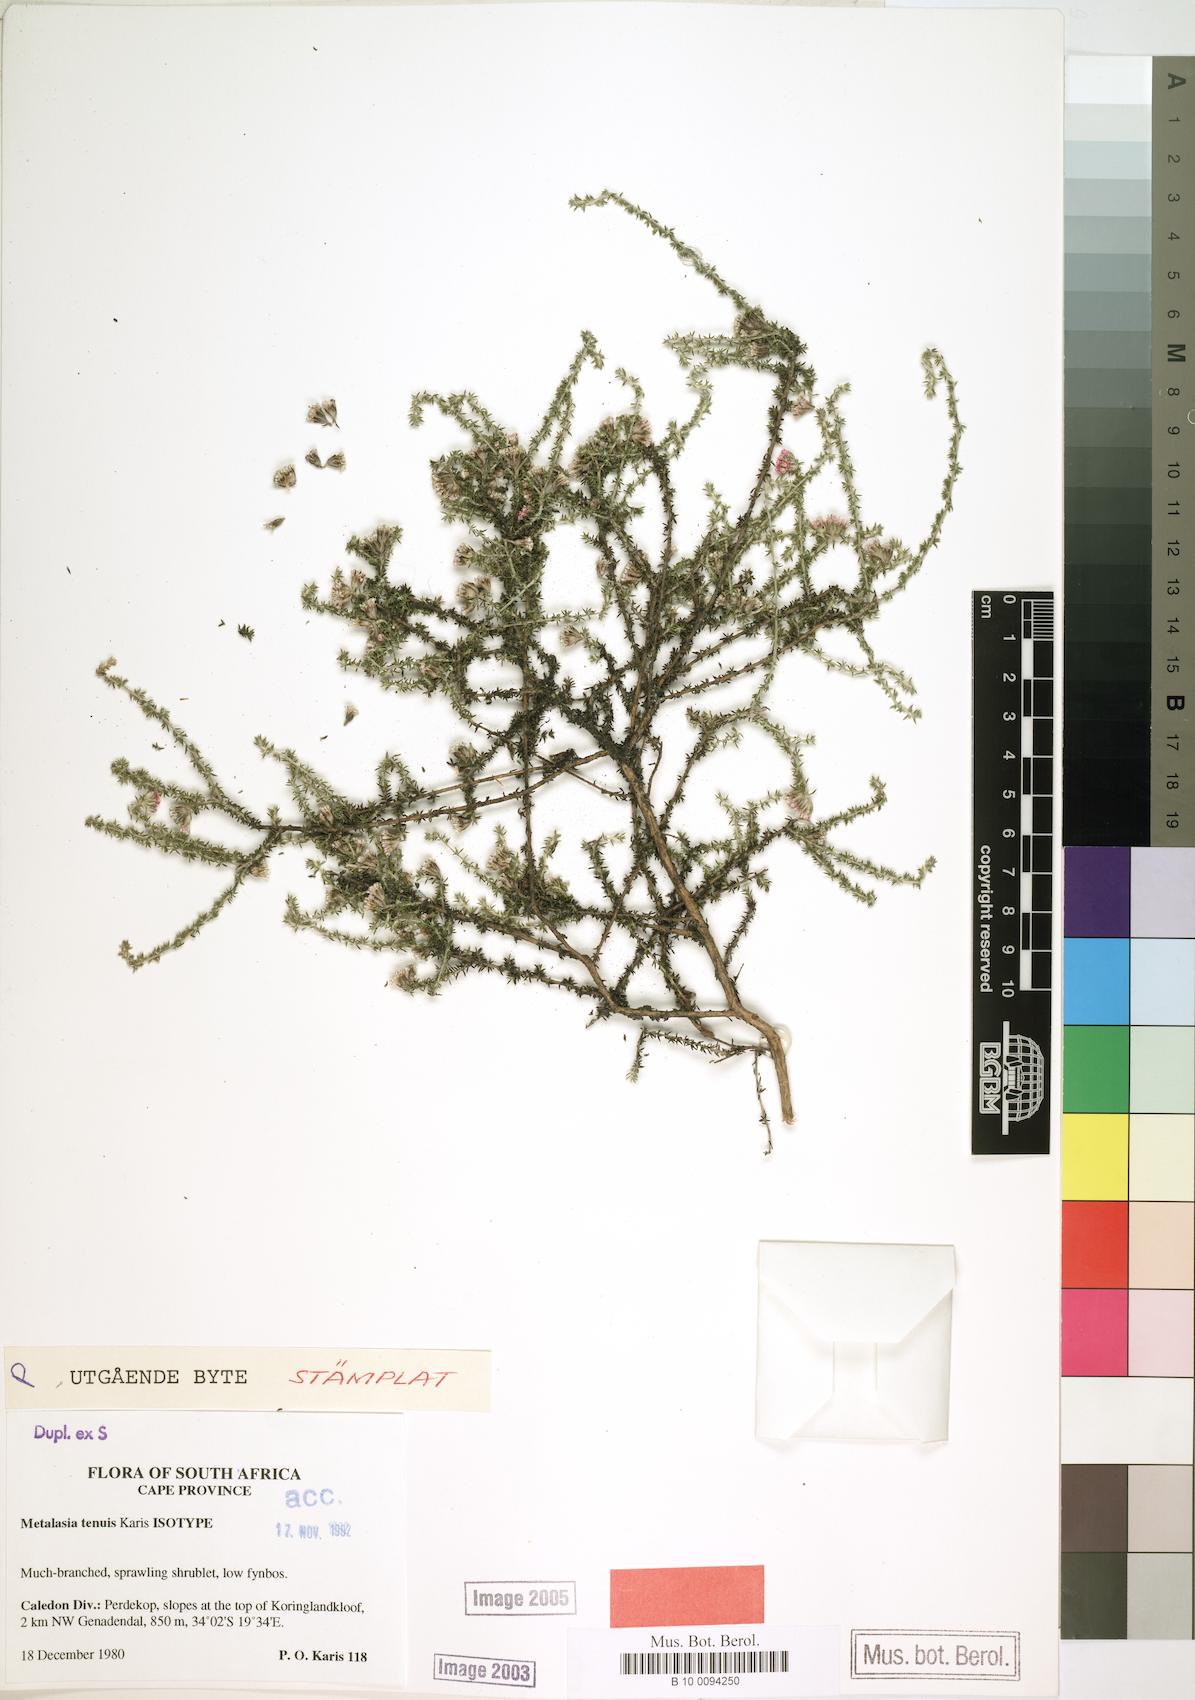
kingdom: Plantae
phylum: Tracheophyta
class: Magnoliopsida
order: Asterales
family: Asteraceae
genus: Metalasia
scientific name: Metalasia tenuis
